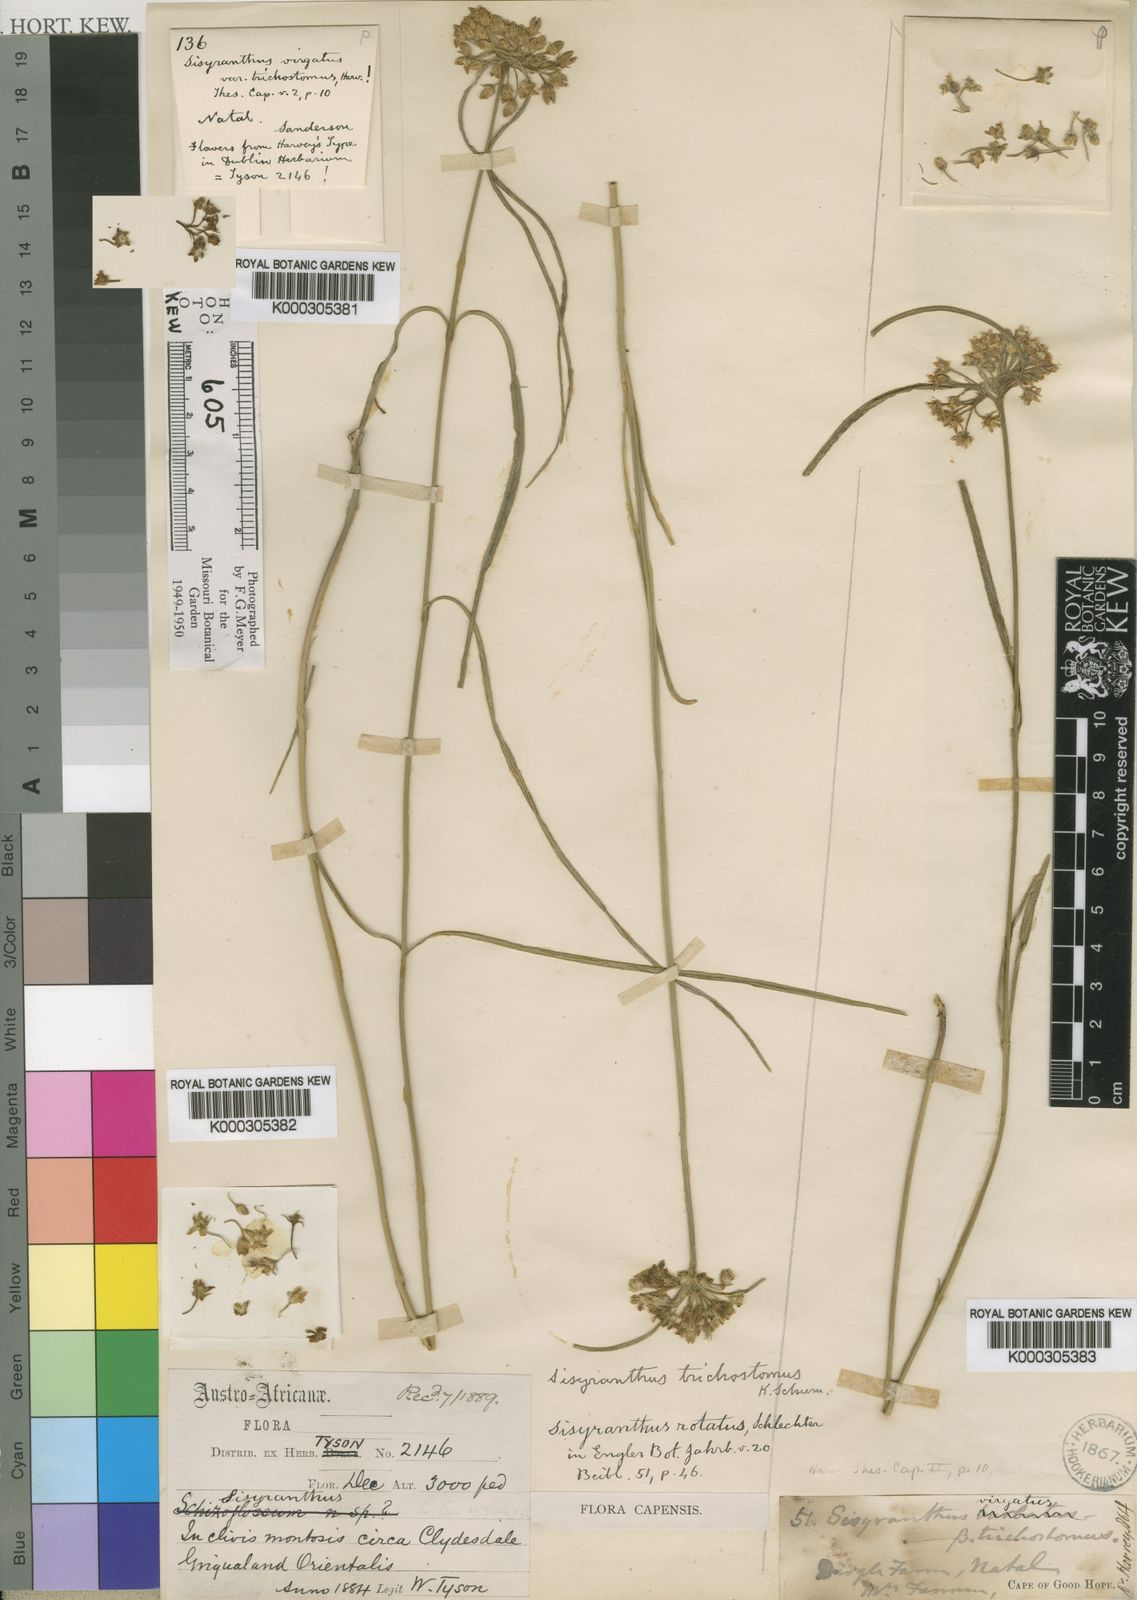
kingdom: Plantae
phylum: Tracheophyta
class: Magnoliopsida
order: Gentianales
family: Apocynaceae
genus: Sisyranthus
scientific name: Sisyranthus trichostomus
